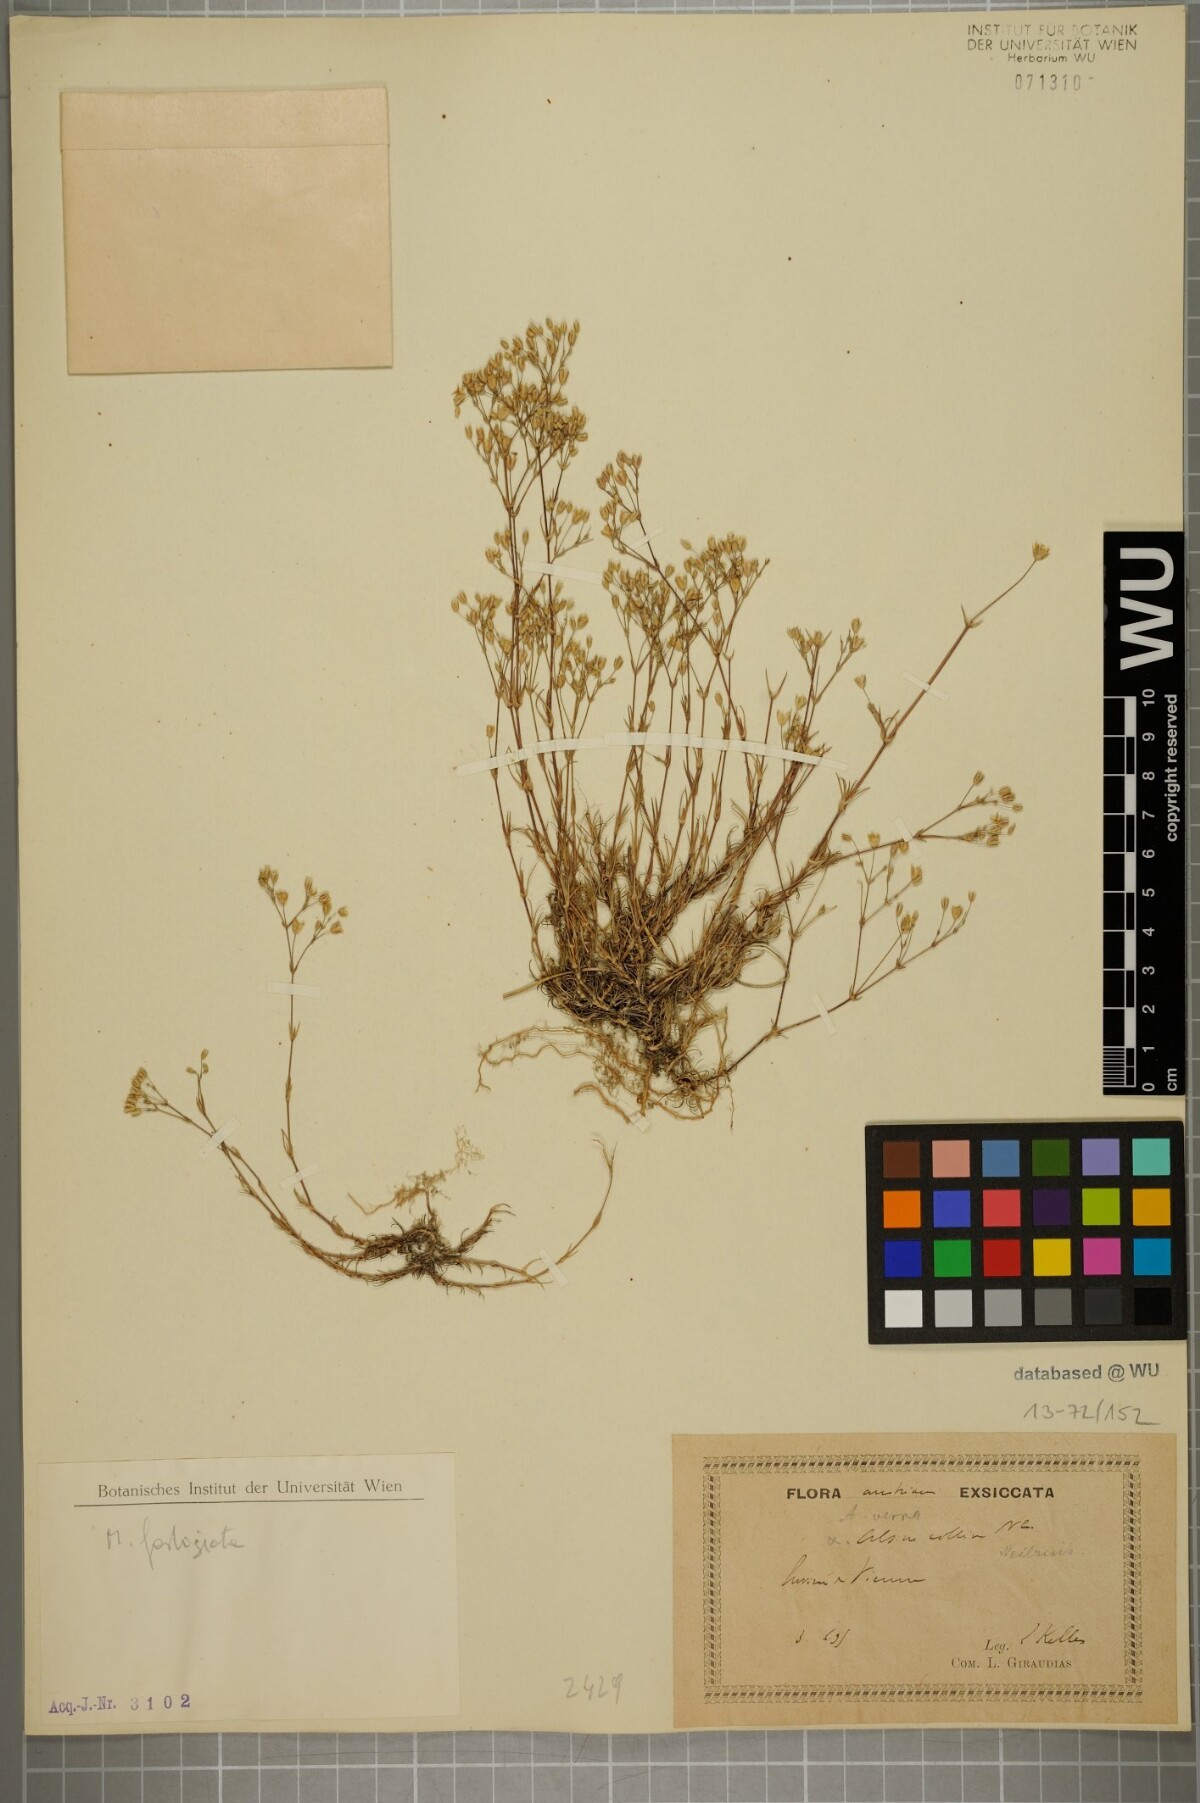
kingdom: Plantae
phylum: Tracheophyta
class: Magnoliopsida
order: Caryophyllales
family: Caryophyllaceae
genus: Sabulina
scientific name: Sabulina glaucina
